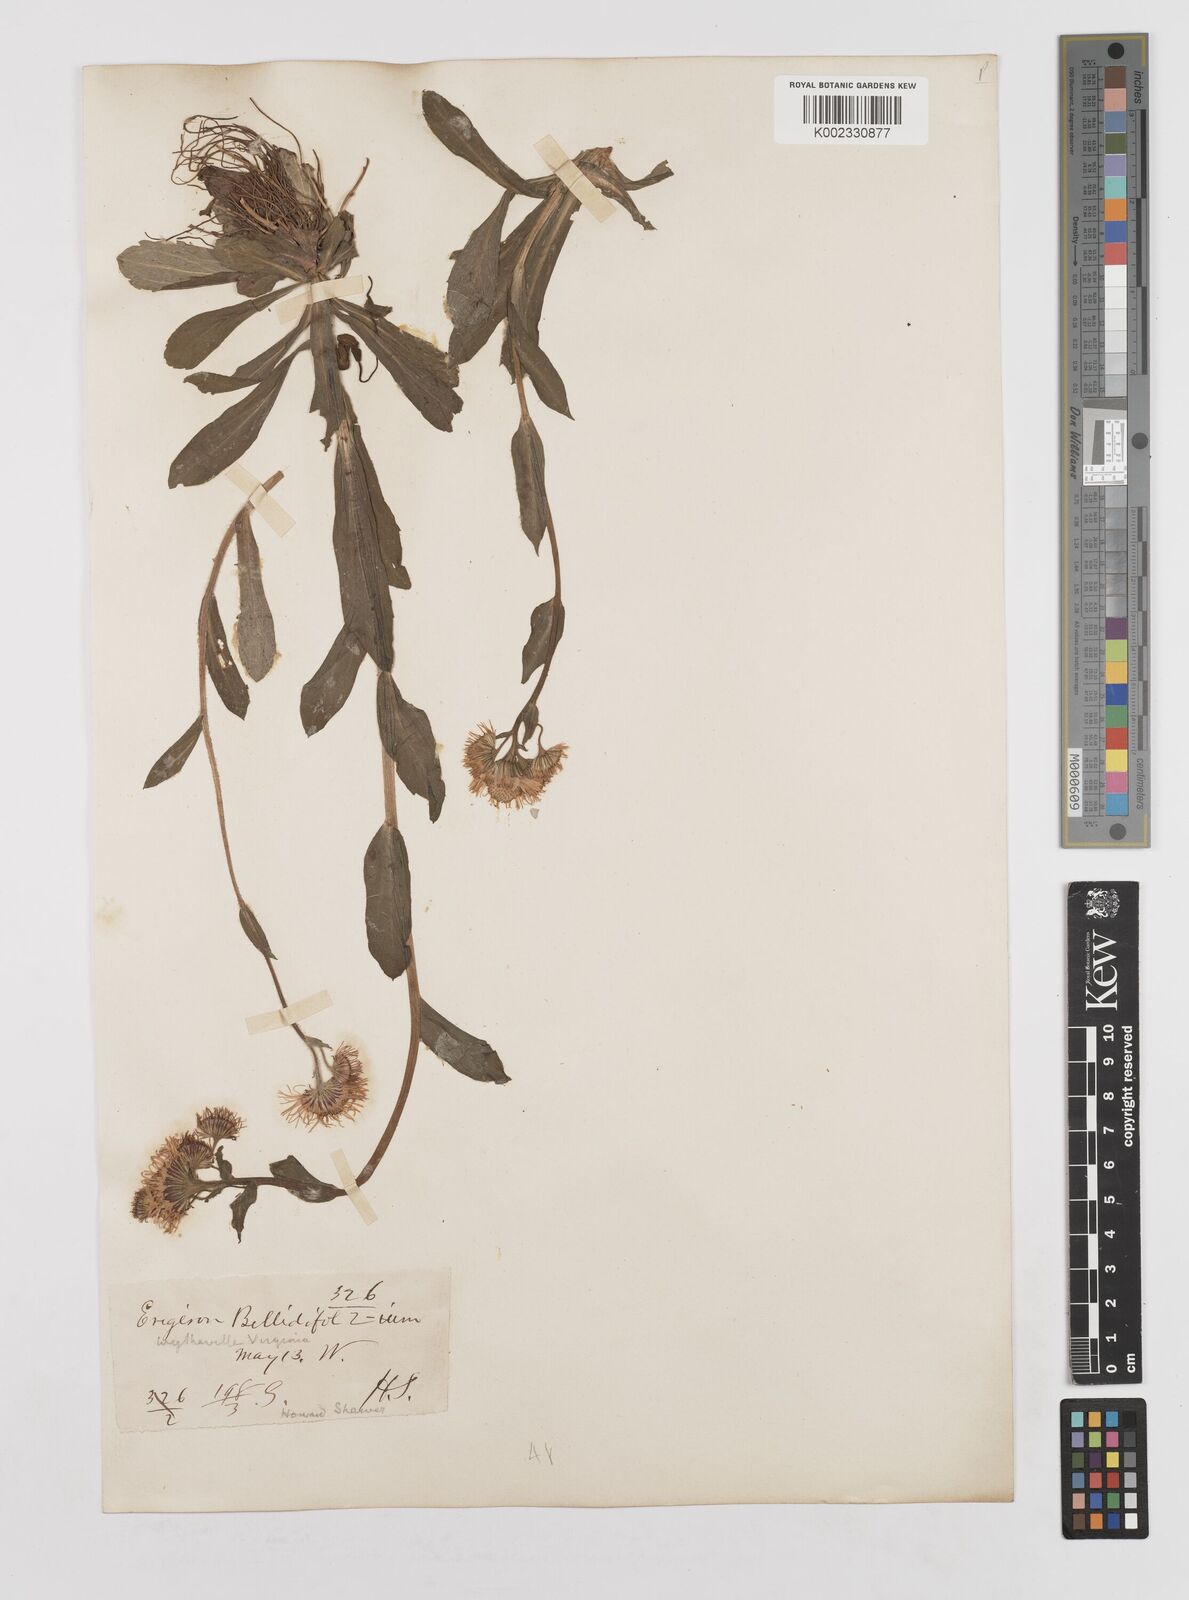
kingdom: Plantae
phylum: Tracheophyta
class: Magnoliopsida
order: Asterales
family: Asteraceae
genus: Erigeron
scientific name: Erigeron pulchellus
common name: Hairy fleabane
